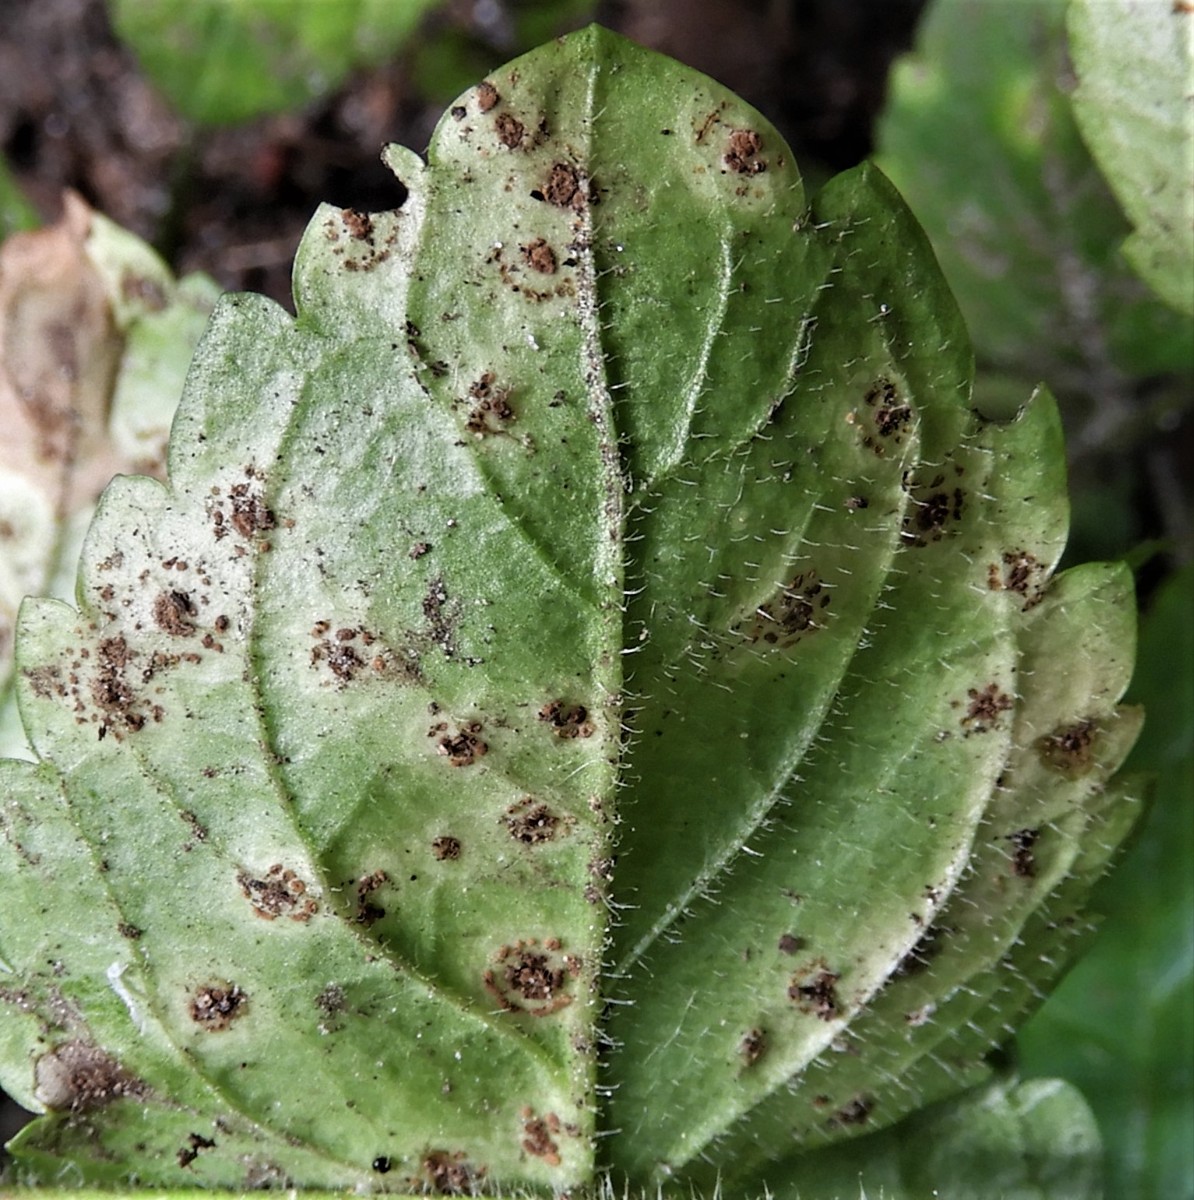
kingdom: Fungi
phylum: Basidiomycota
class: Pucciniomycetes
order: Pucciniales
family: Pucciniaceae
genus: Puccinia
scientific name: Puccinia veronicae
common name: Wood speedwell rust
